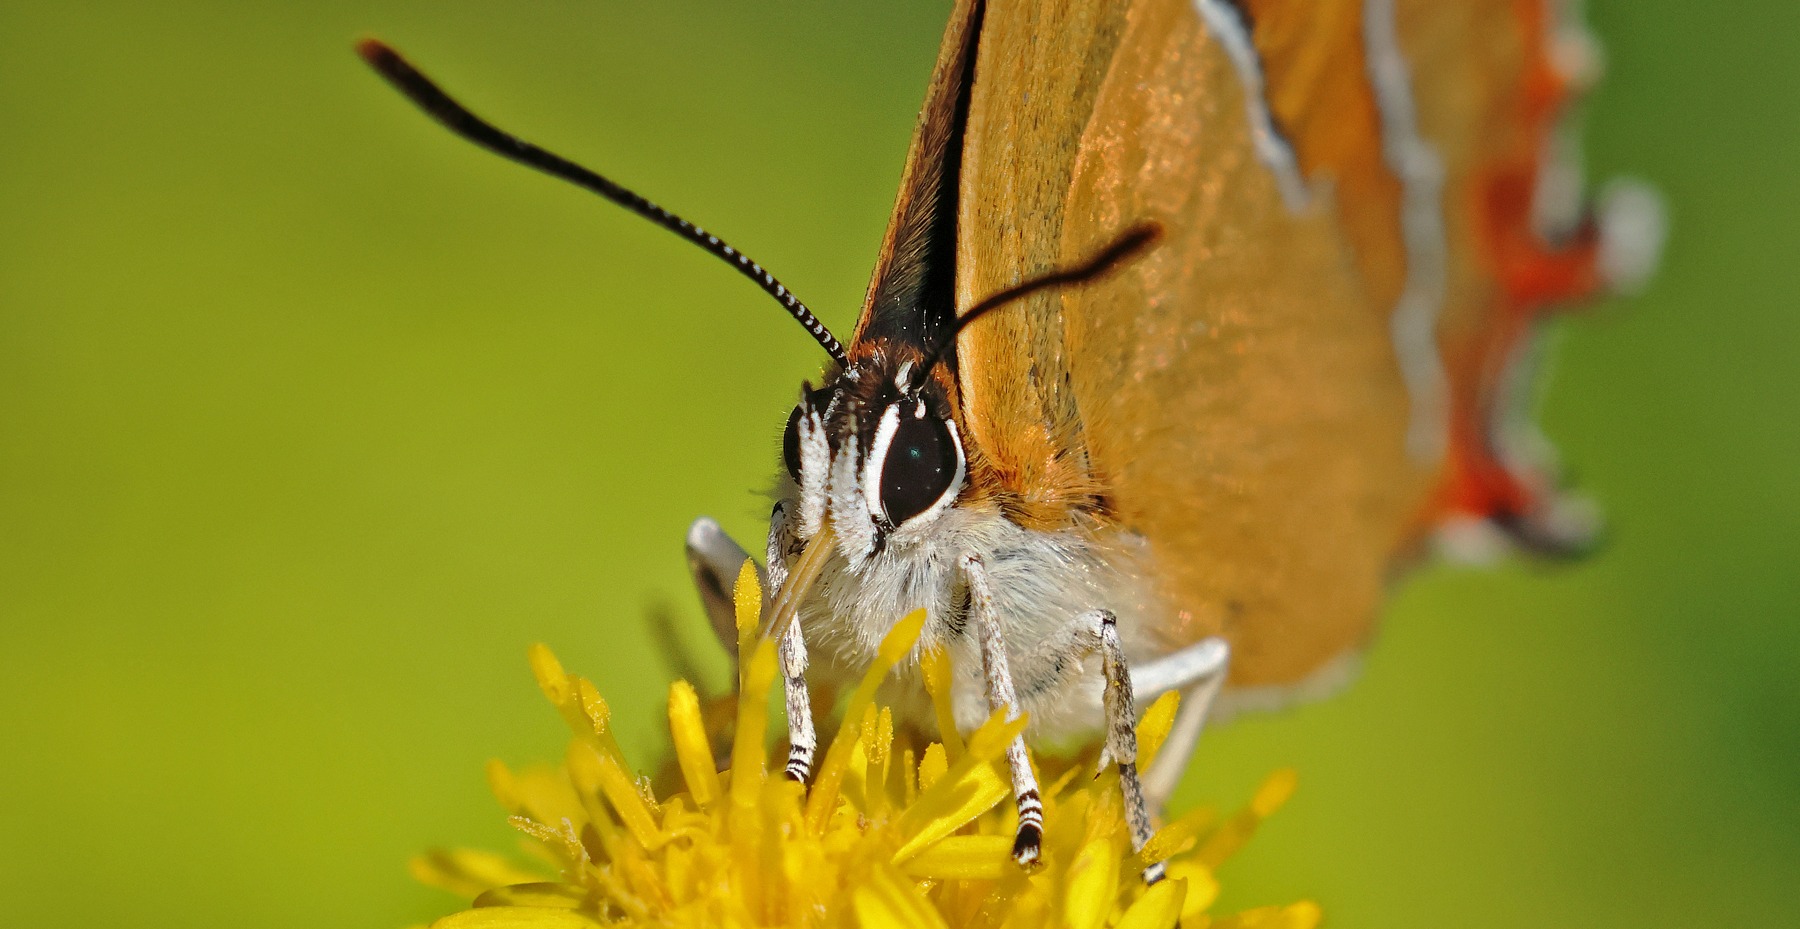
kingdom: Animalia
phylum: Arthropoda
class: Insecta
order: Lepidoptera
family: Lycaenidae
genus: Thecla
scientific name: Thecla betulae
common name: Guldhale
